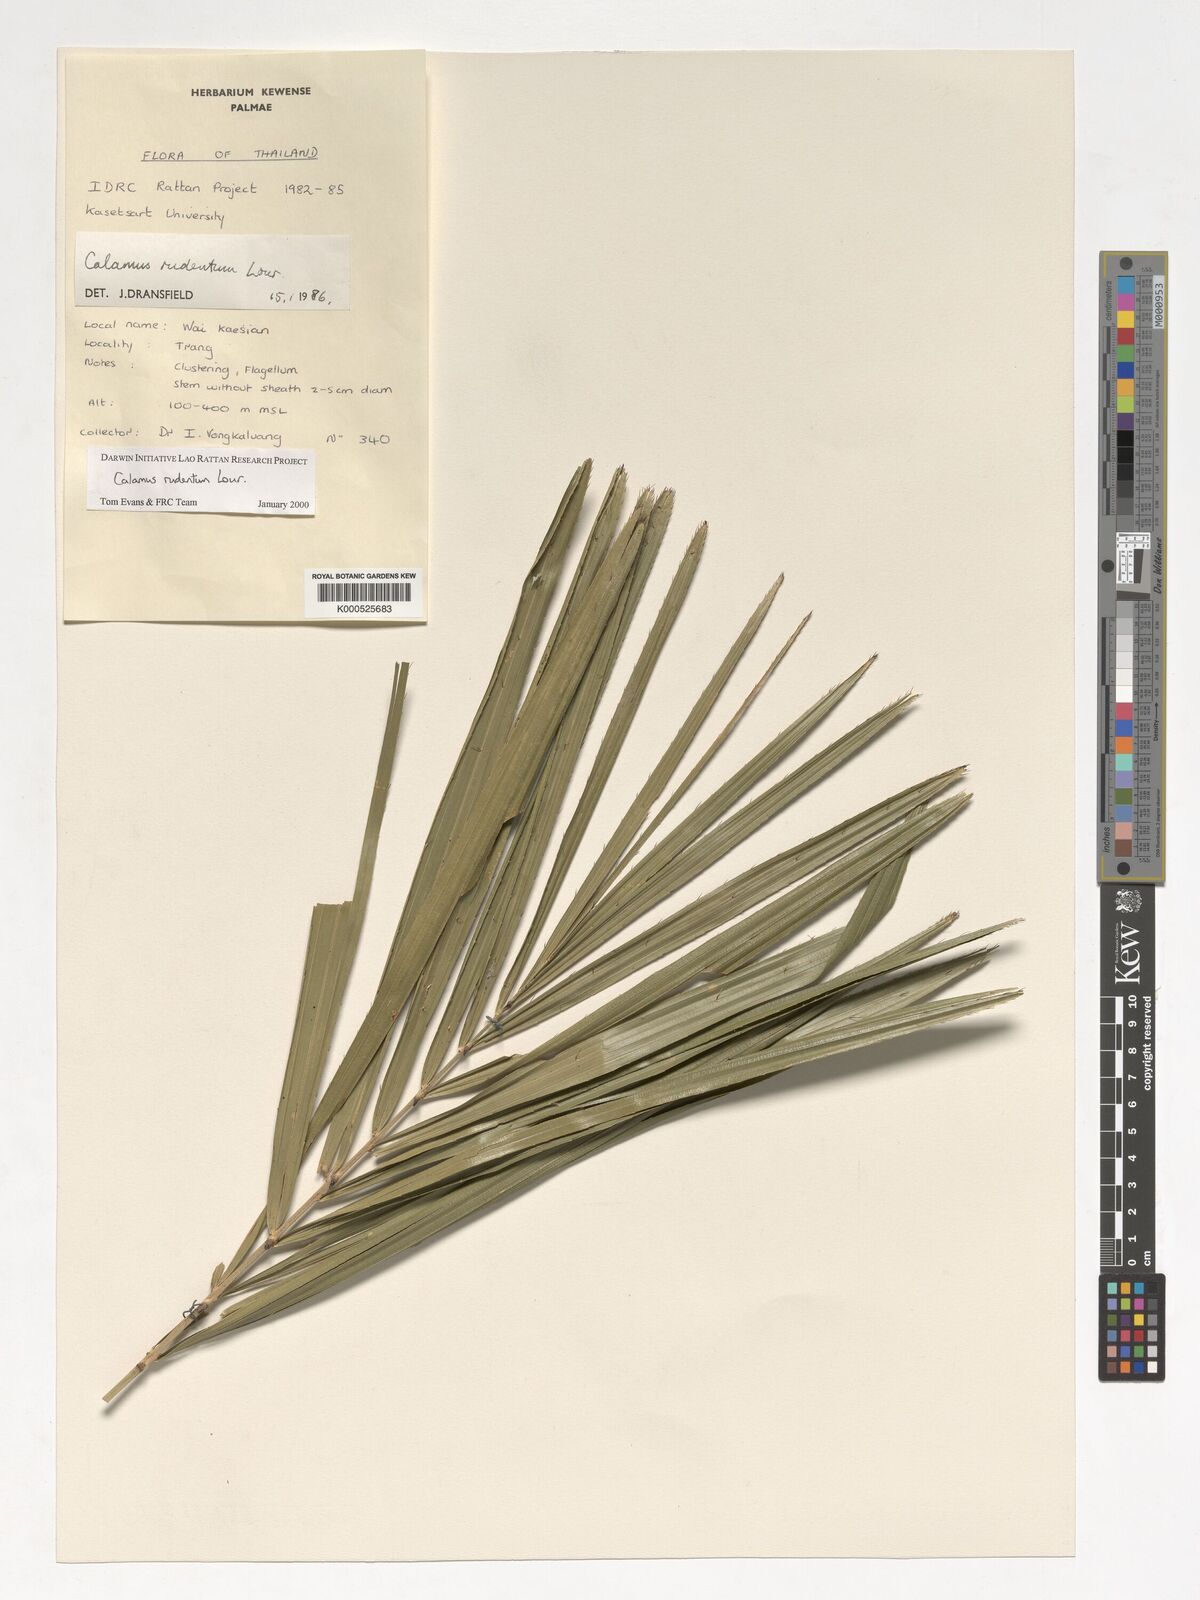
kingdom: Plantae
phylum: Tracheophyta
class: Liliopsida
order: Arecales
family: Arecaceae
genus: Calamus
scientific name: Calamus rudentum
